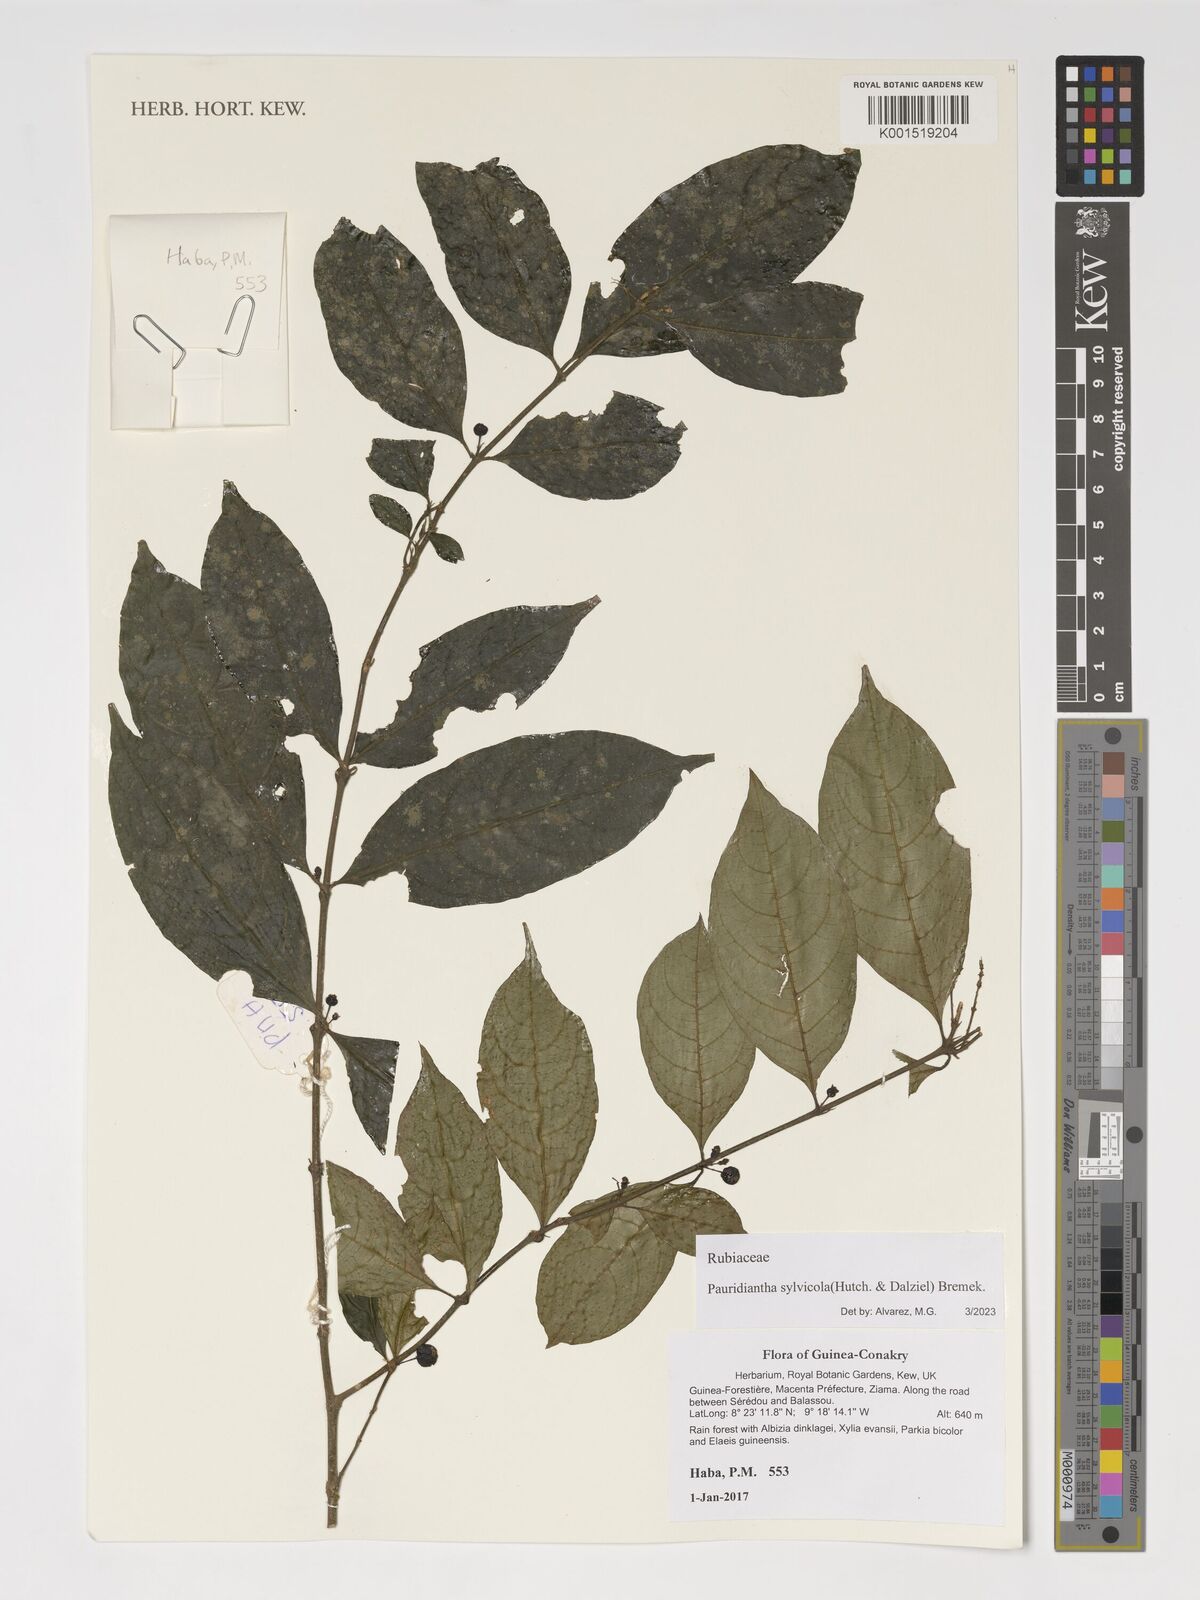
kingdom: Plantae
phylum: Tracheophyta
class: Magnoliopsida
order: Gentianales
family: Rubiaceae
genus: Pauridiantha
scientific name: Pauridiantha sylvicola
